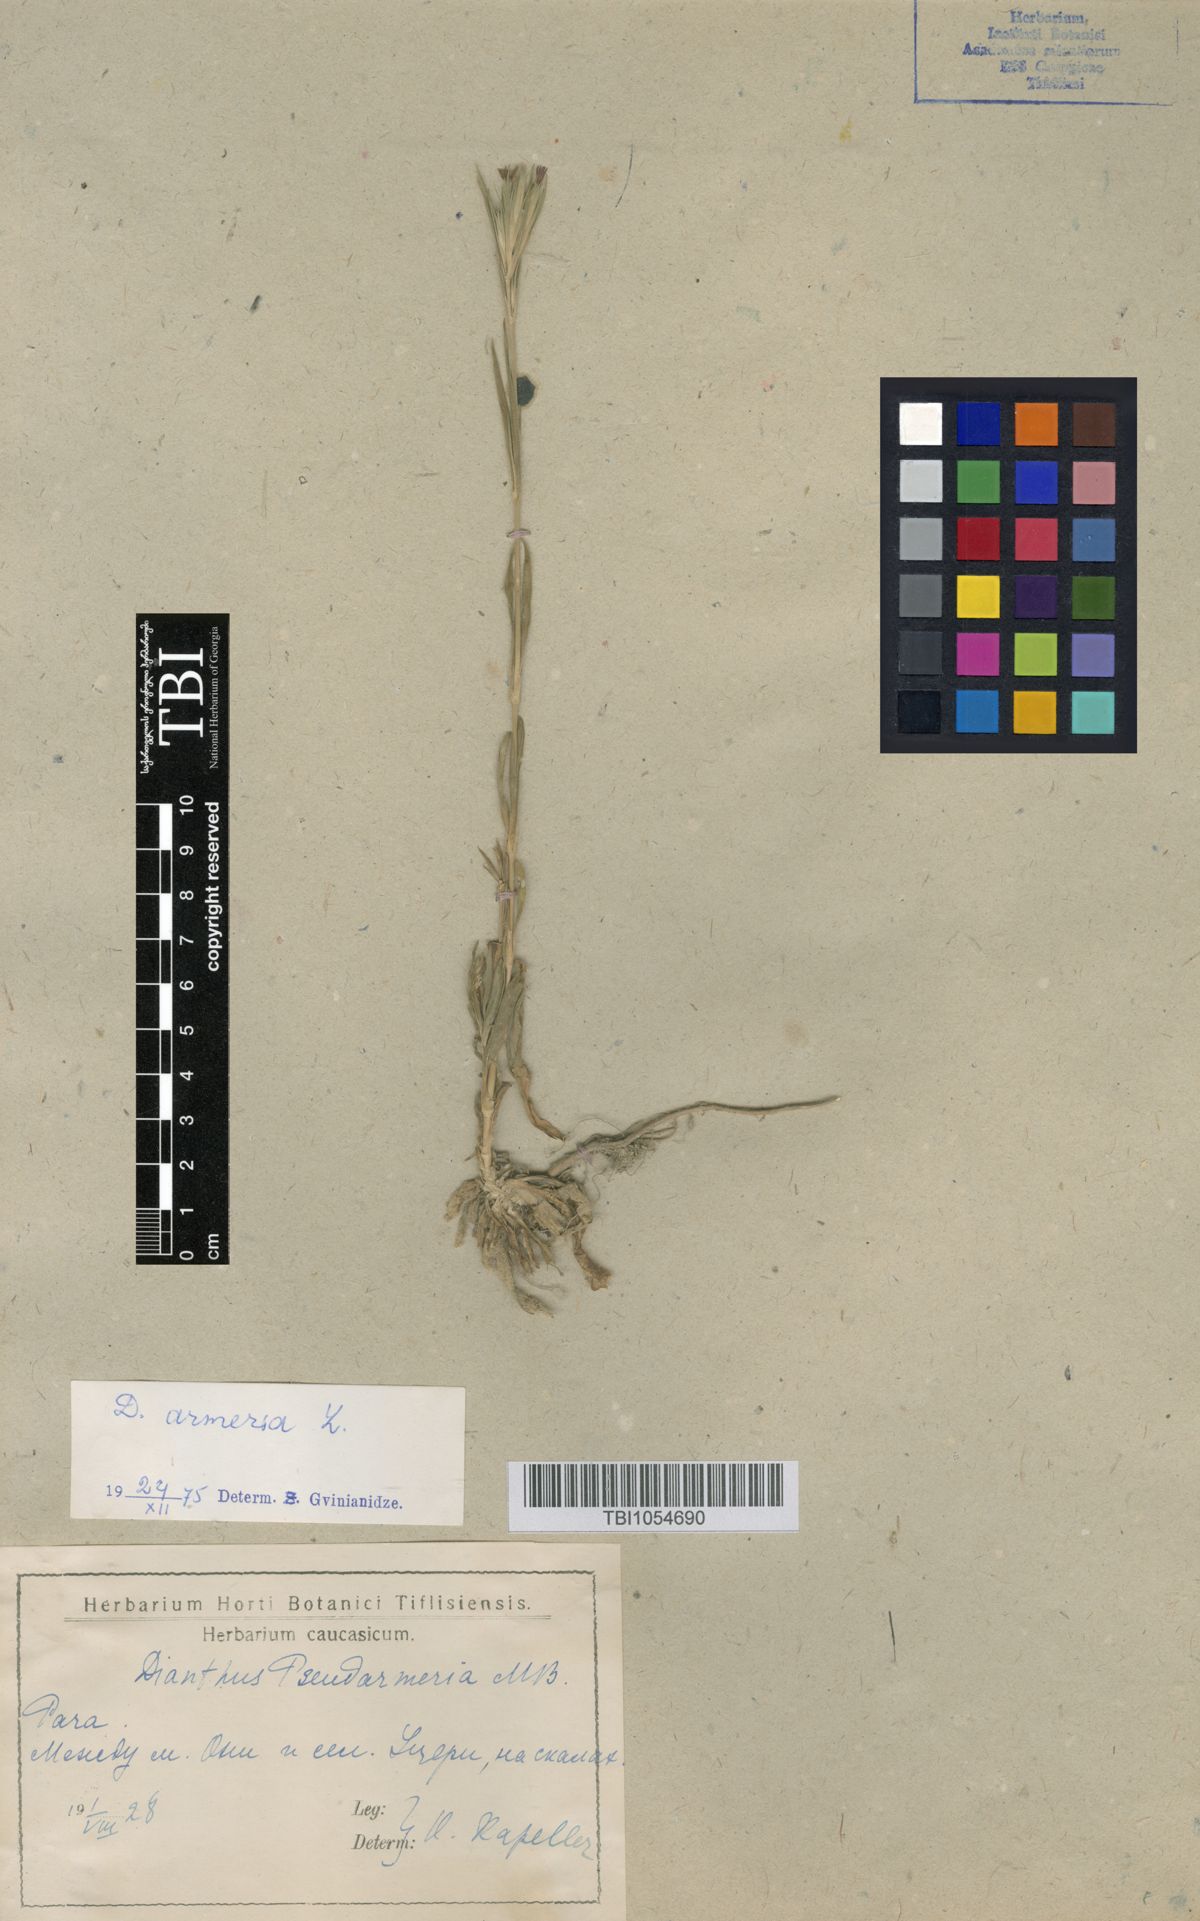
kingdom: Plantae
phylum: Tracheophyta
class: Magnoliopsida
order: Caryophyllales
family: Caryophyllaceae
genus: Dianthus
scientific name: Dianthus armeria
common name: Deptford pink
